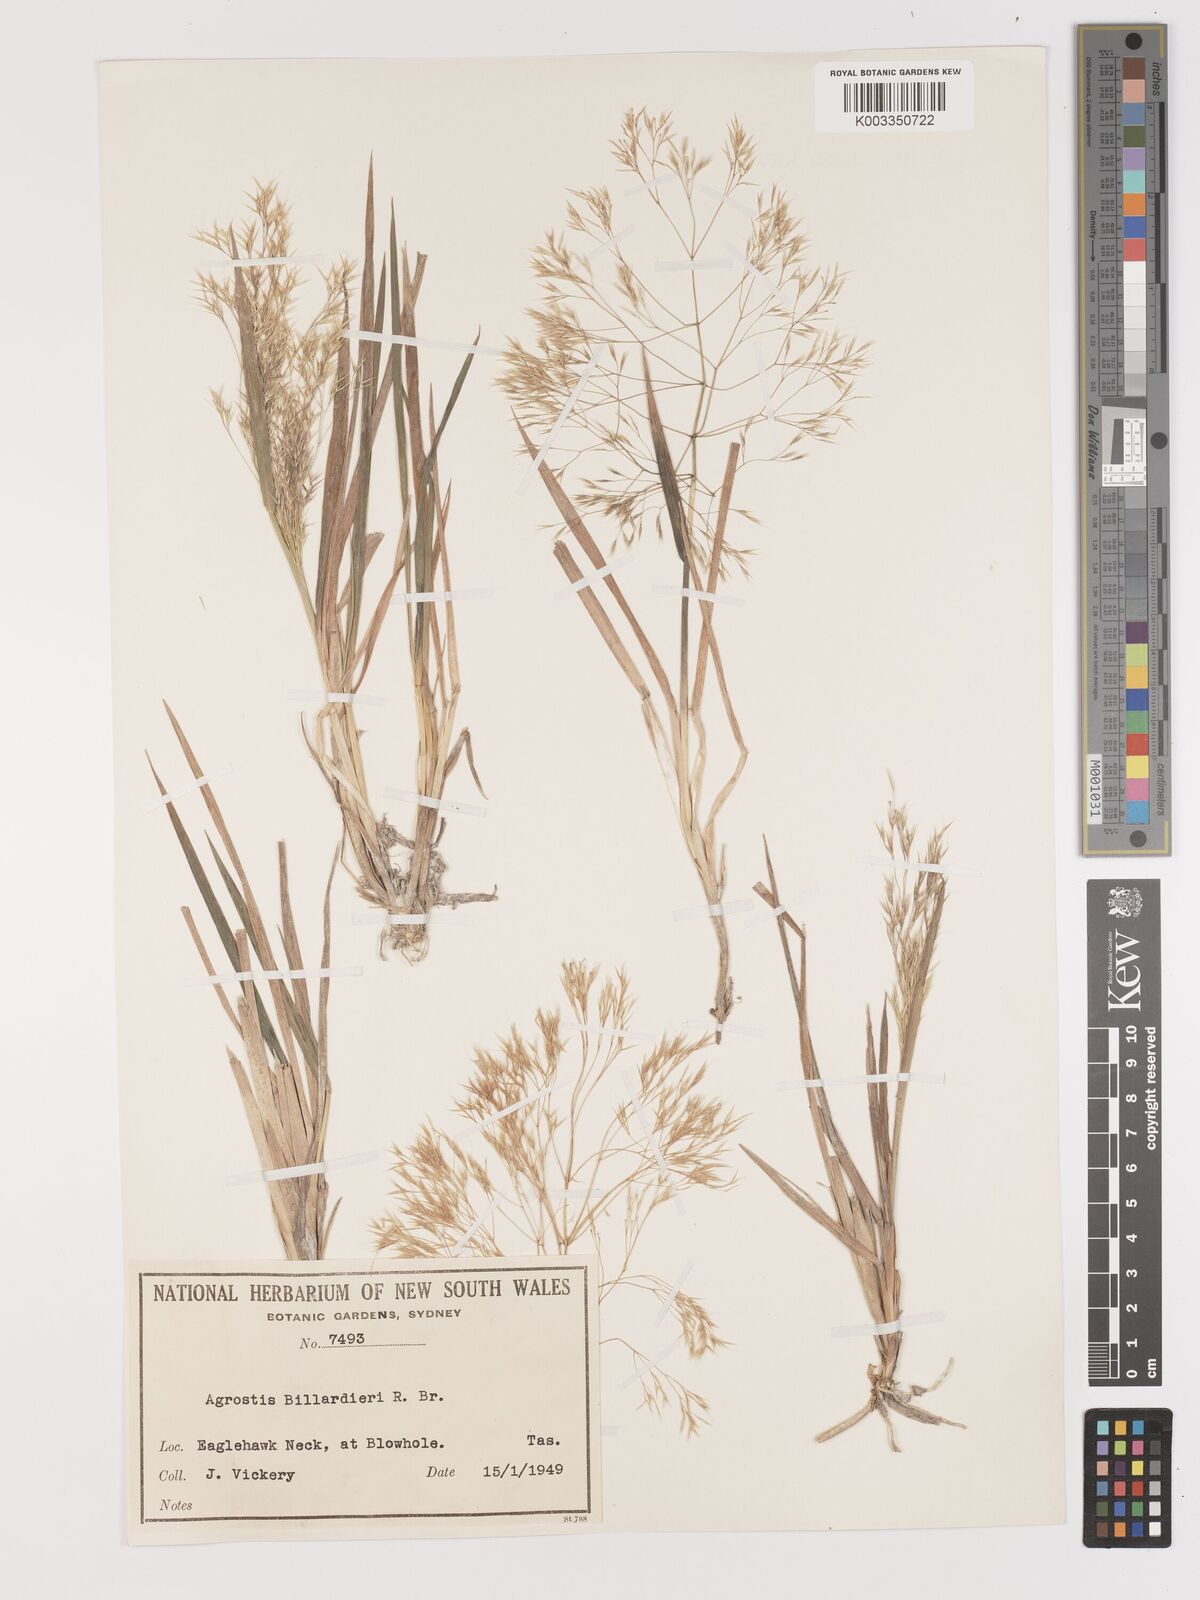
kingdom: Plantae
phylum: Tracheophyta
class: Liliopsida
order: Poales
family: Poaceae
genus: Lachnagrostis
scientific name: Lachnagrostis billardierei
